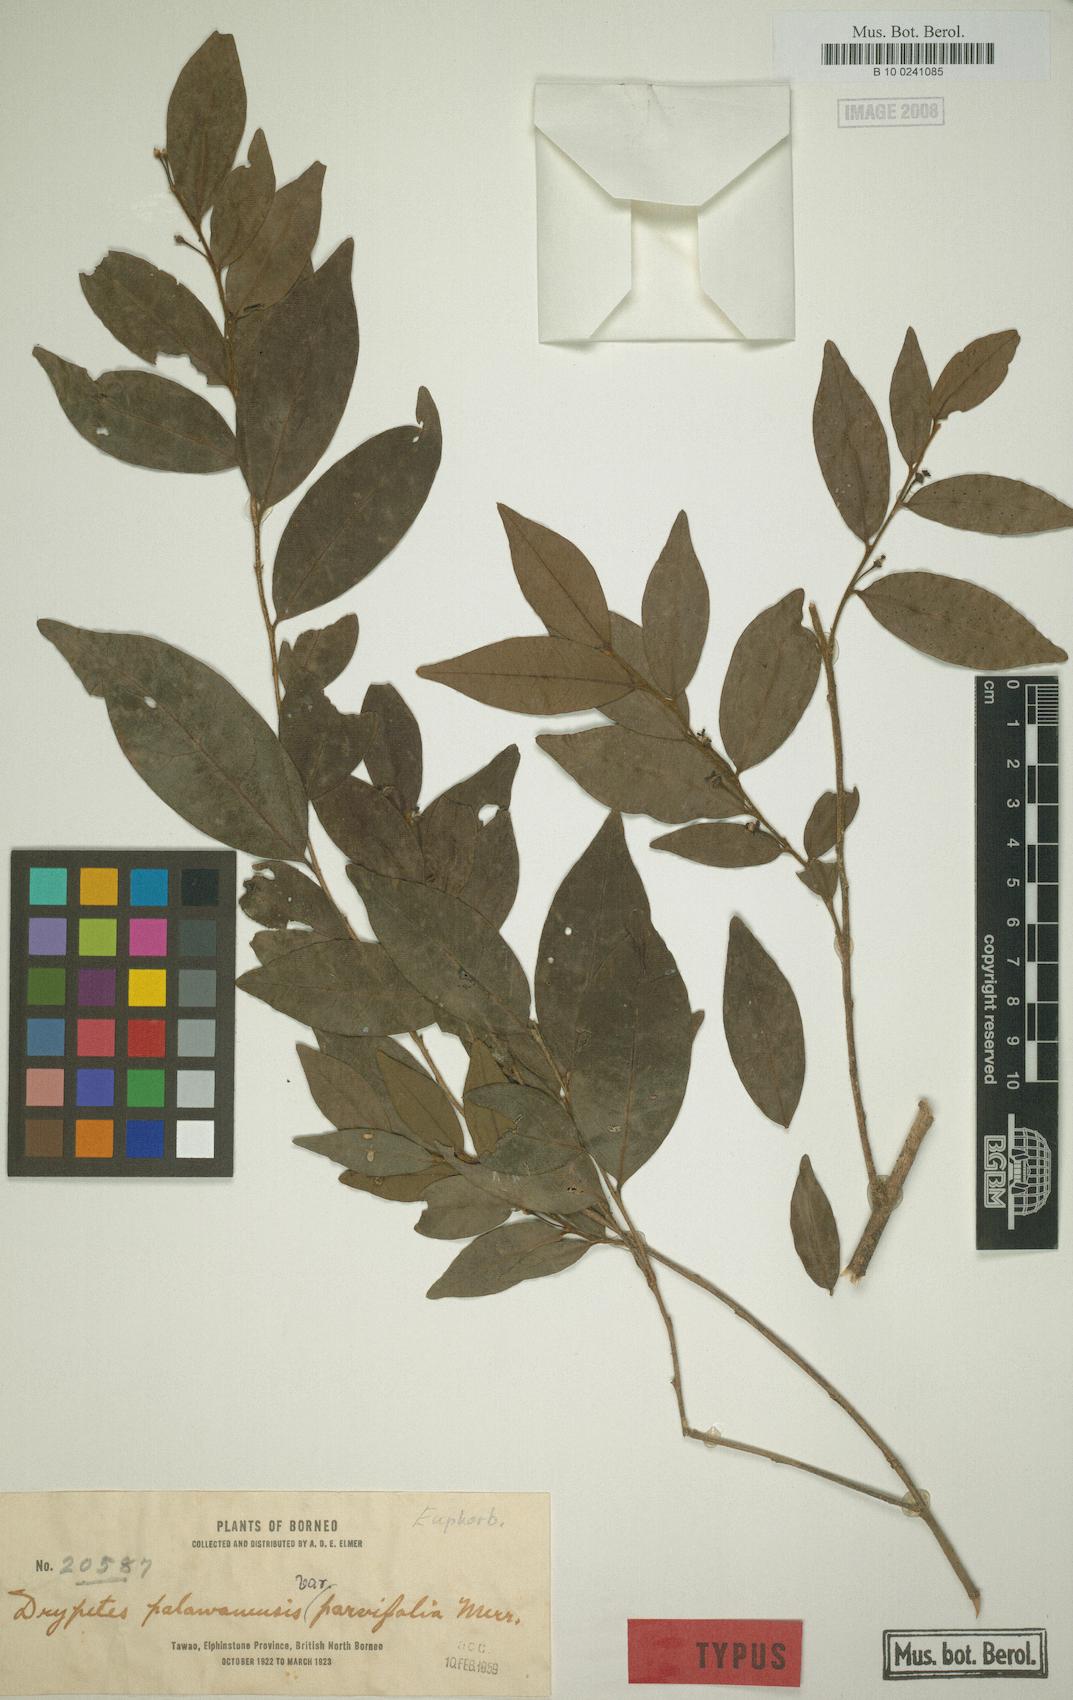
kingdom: Plantae
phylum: Tracheophyta
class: Magnoliopsida
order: Malpighiales
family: Putranjivaceae
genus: Drypetes
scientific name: Drypetes rhakodiskos
